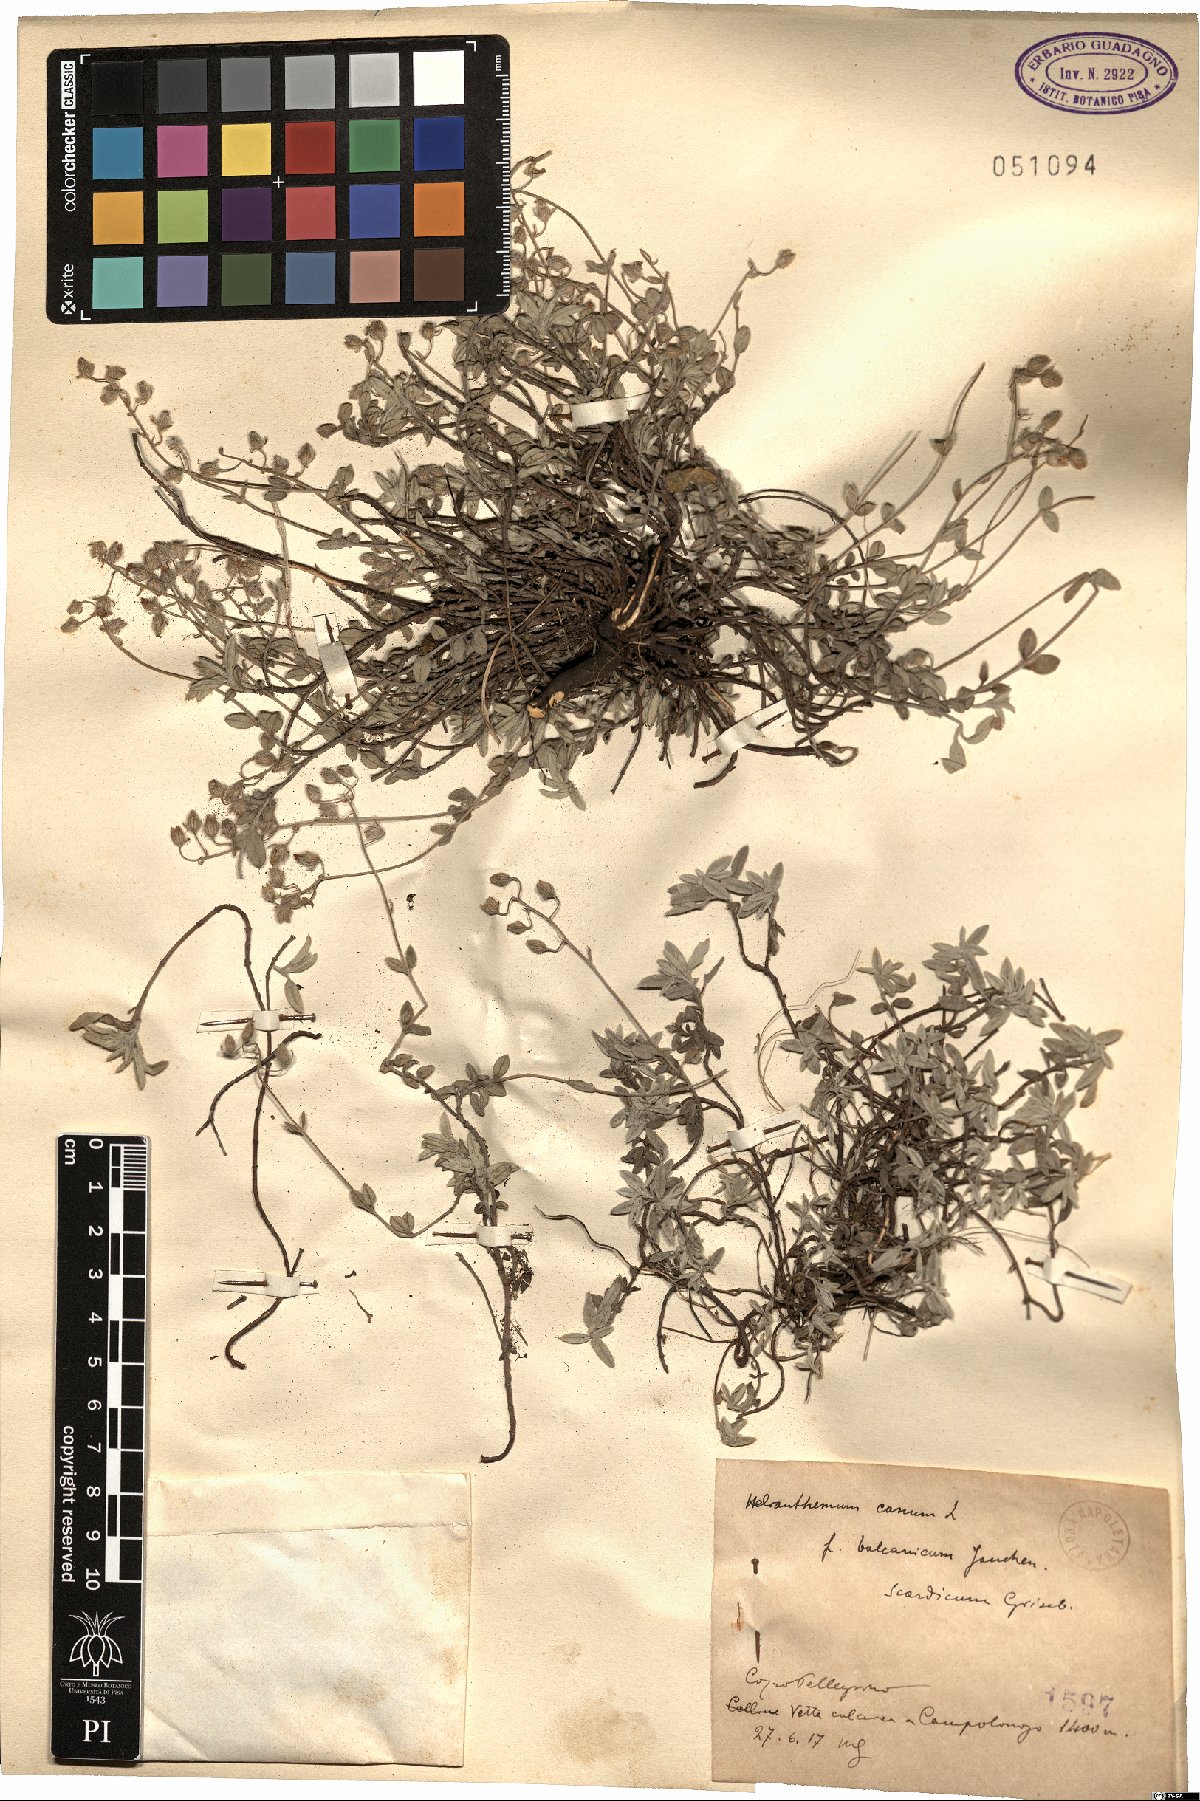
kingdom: Plantae
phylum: Tracheophyta
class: Magnoliopsida
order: Malvales
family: Cistaceae
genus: Helianthemum
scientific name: Helianthemum canum
